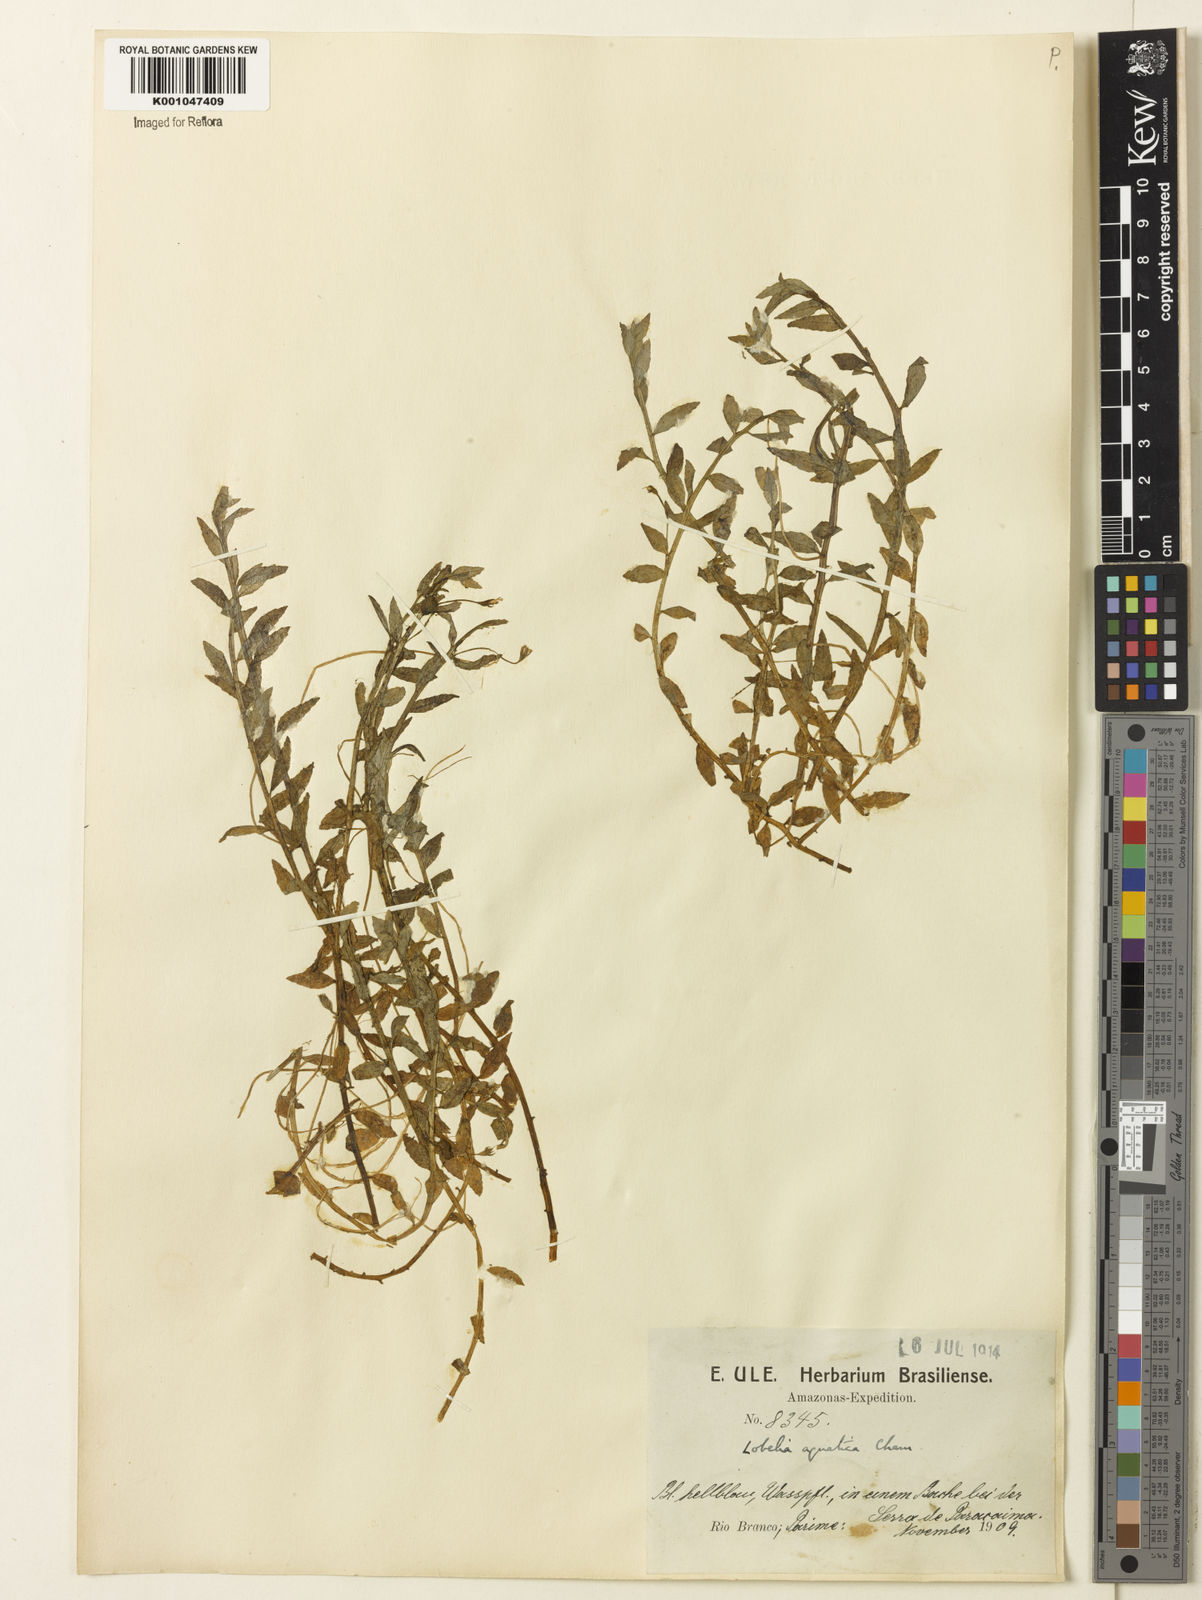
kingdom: Plantae
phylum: Tracheophyta
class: Magnoliopsida
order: Asterales
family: Campanulaceae
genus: Lobelia
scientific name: Lobelia aquatica
